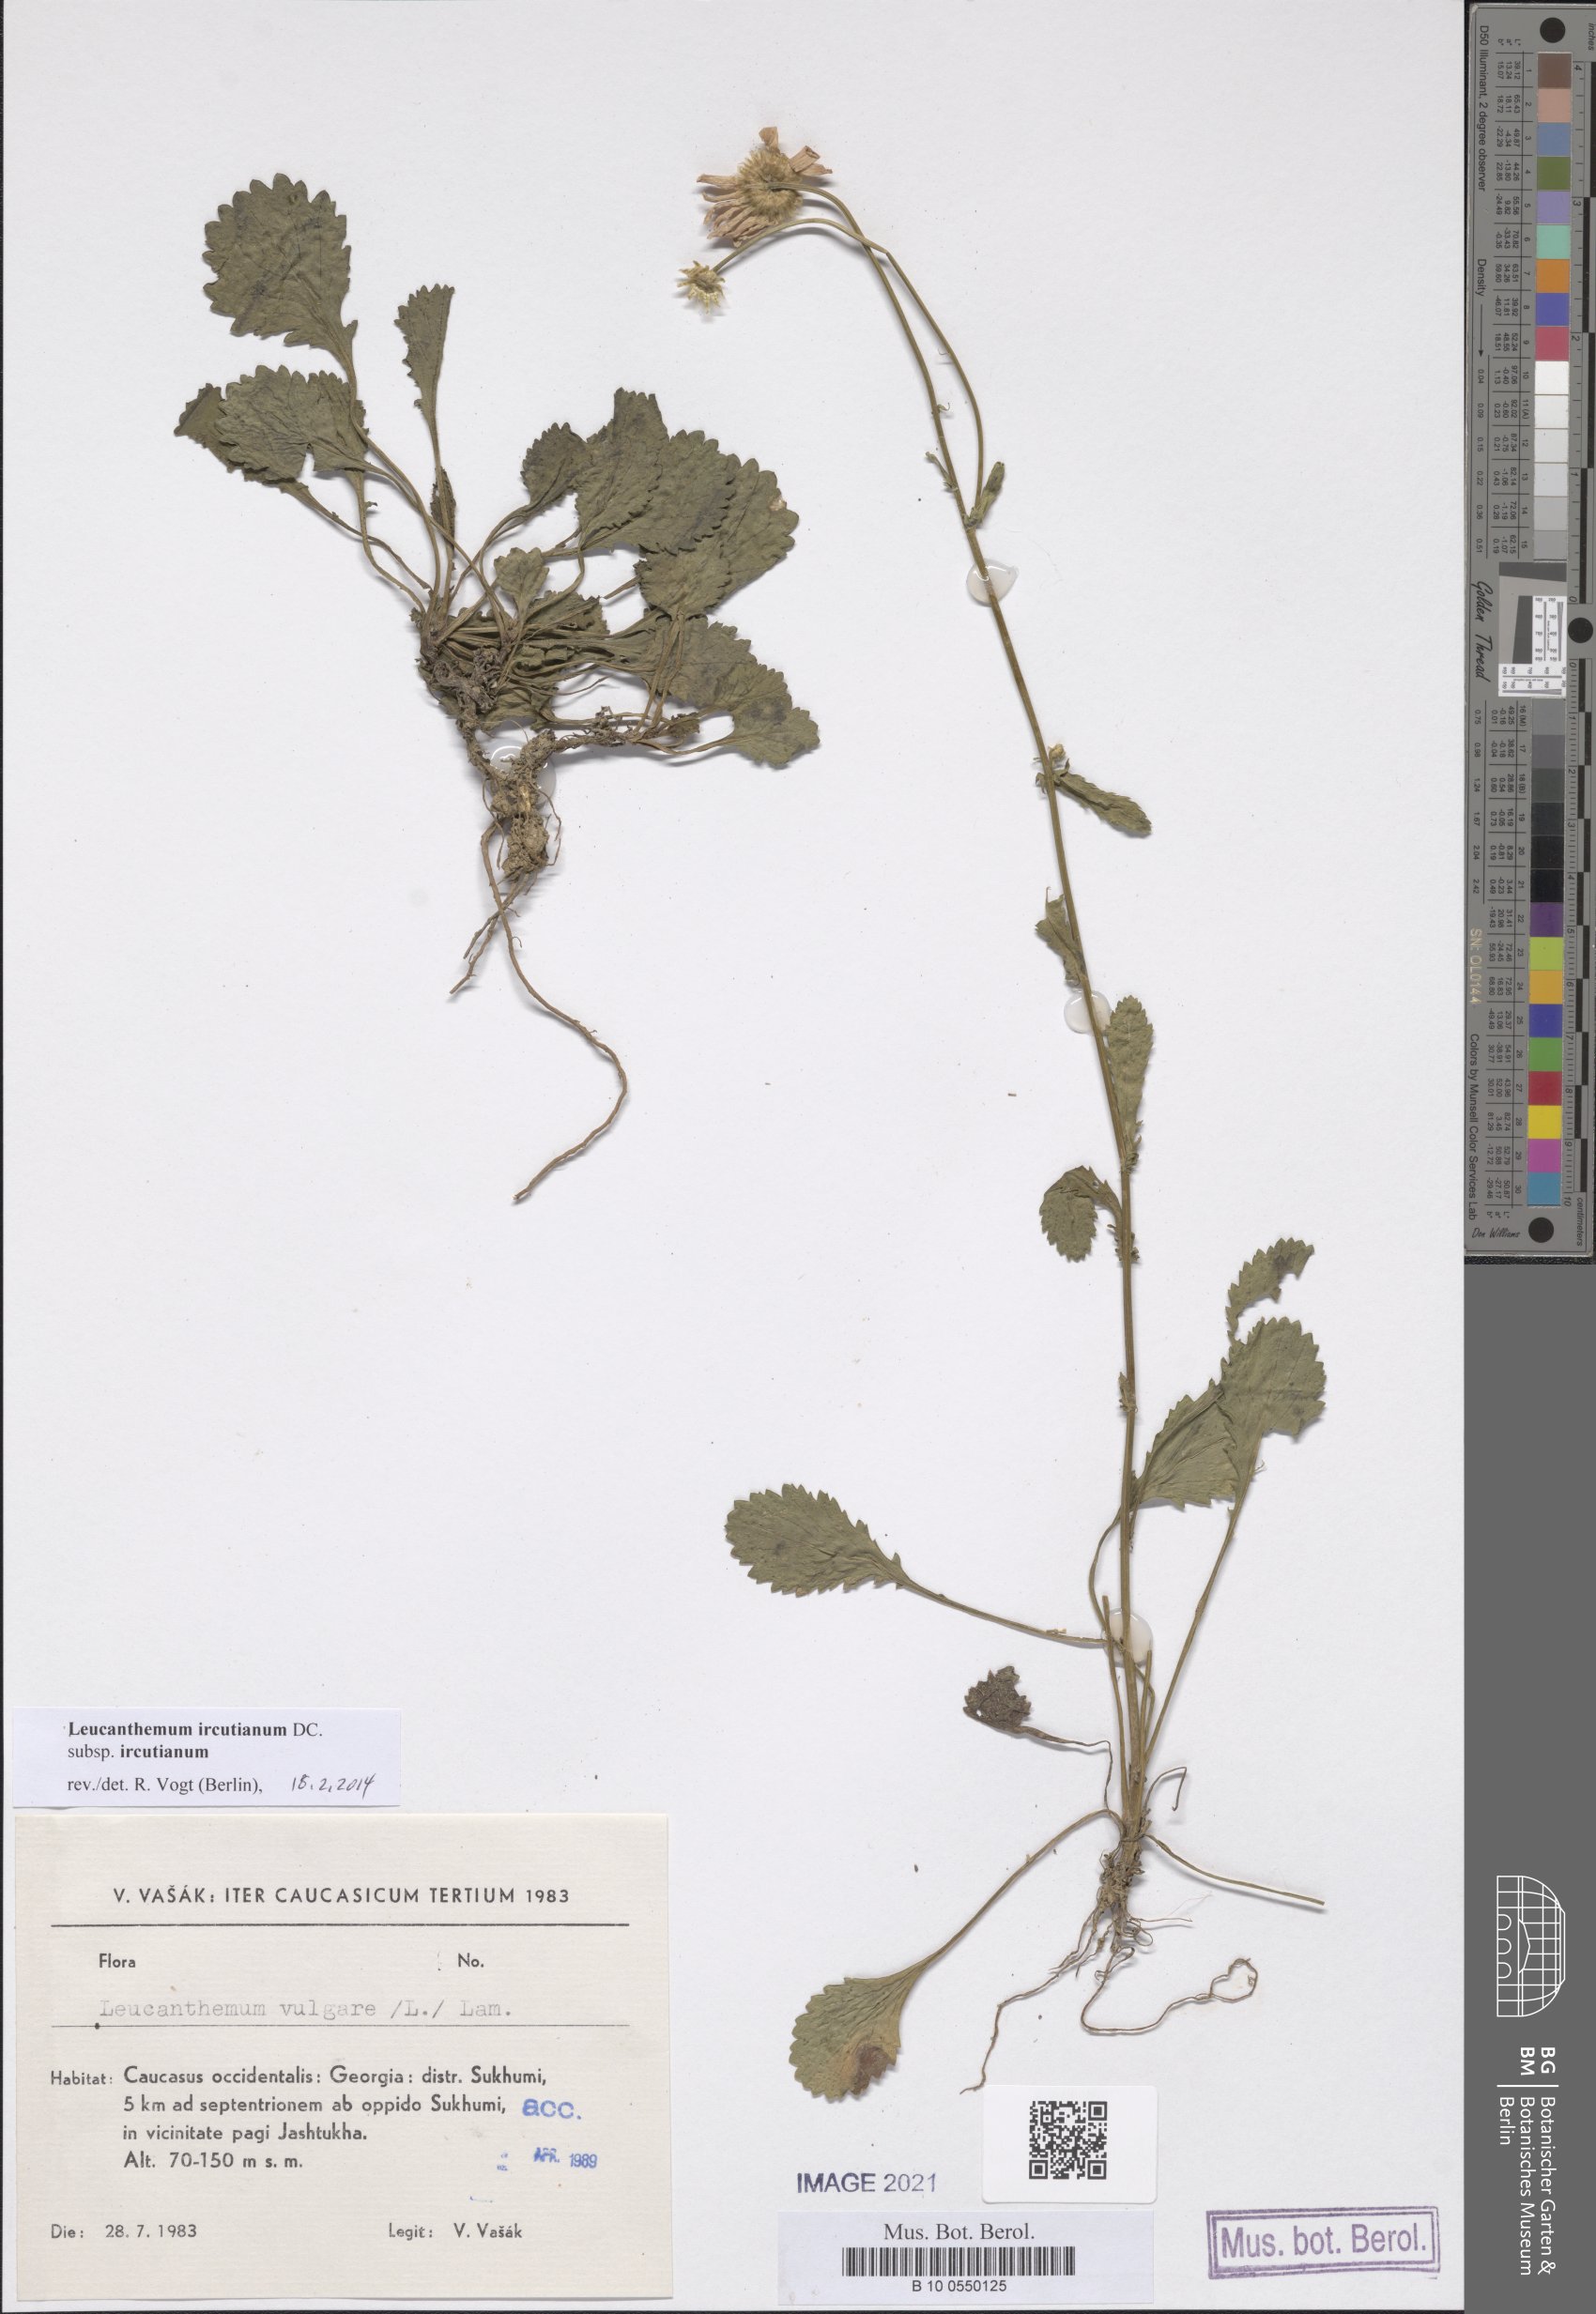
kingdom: Plantae
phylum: Tracheophyta
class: Magnoliopsida
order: Asterales
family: Asteraceae
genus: Leucanthemum
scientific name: Leucanthemum ircutianum
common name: Daisy
